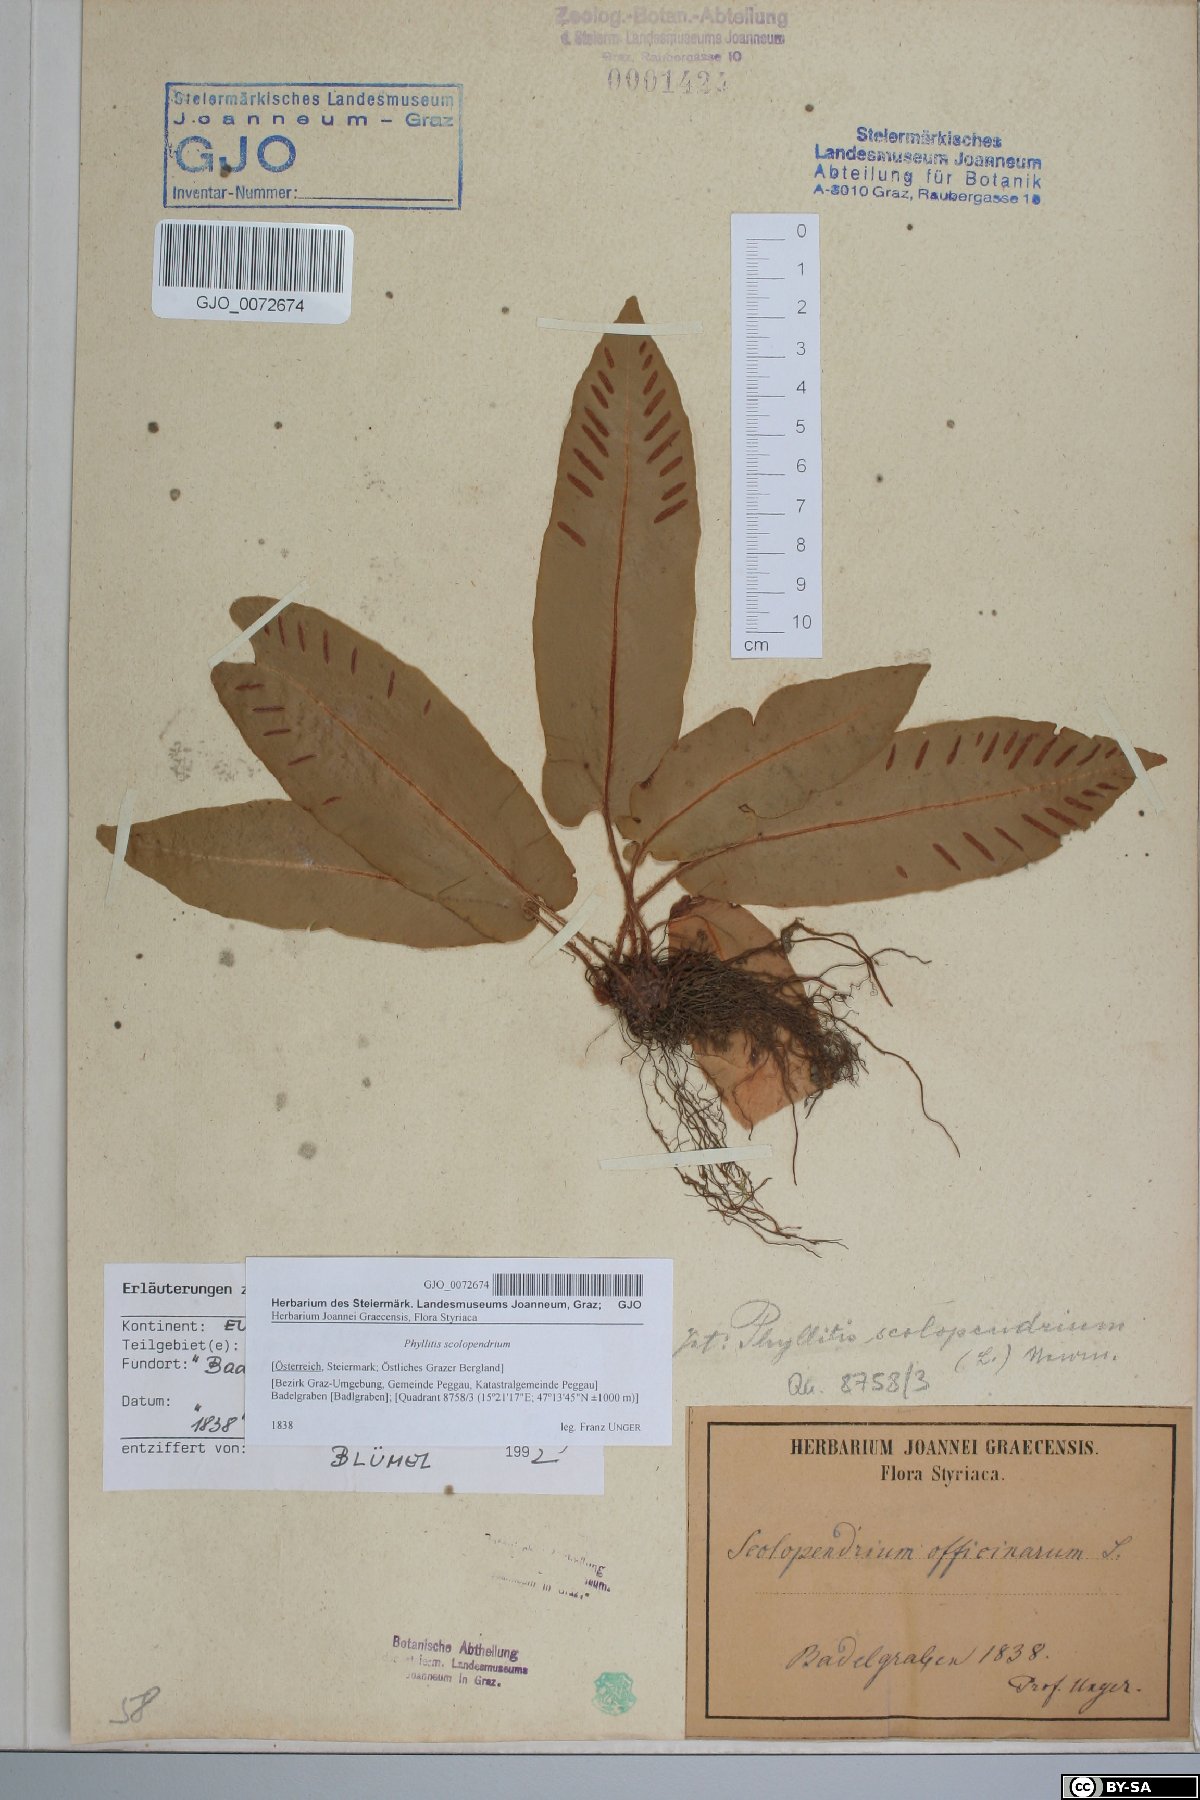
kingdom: Plantae
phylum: Tracheophyta
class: Polypodiopsida
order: Polypodiales
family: Aspleniaceae
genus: Asplenium
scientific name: Asplenium scolopendrium
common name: Hart's-tongue fern
